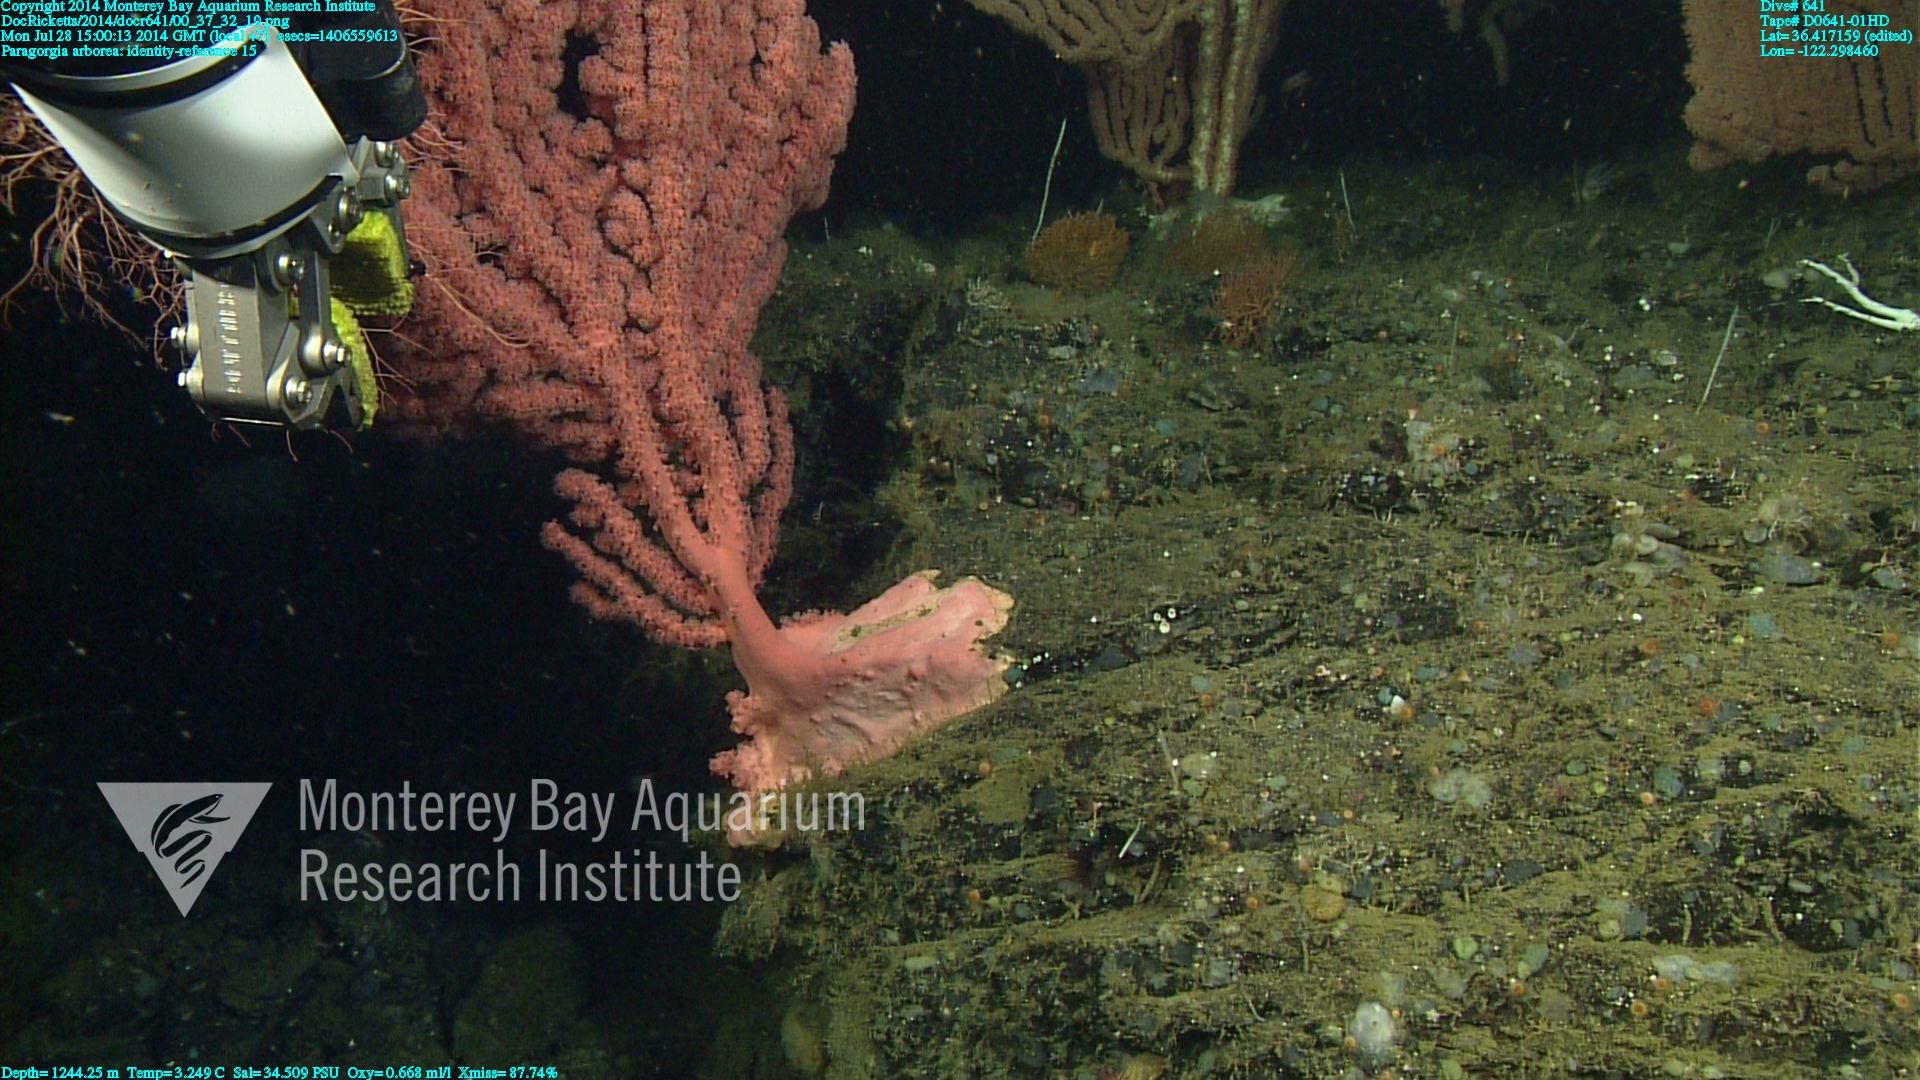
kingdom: Animalia
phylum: Cnidaria
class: Anthozoa
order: Scleralcyonacea
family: Coralliidae
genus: Paragorgia
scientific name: Paragorgia arborea
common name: Bubble gum coral
